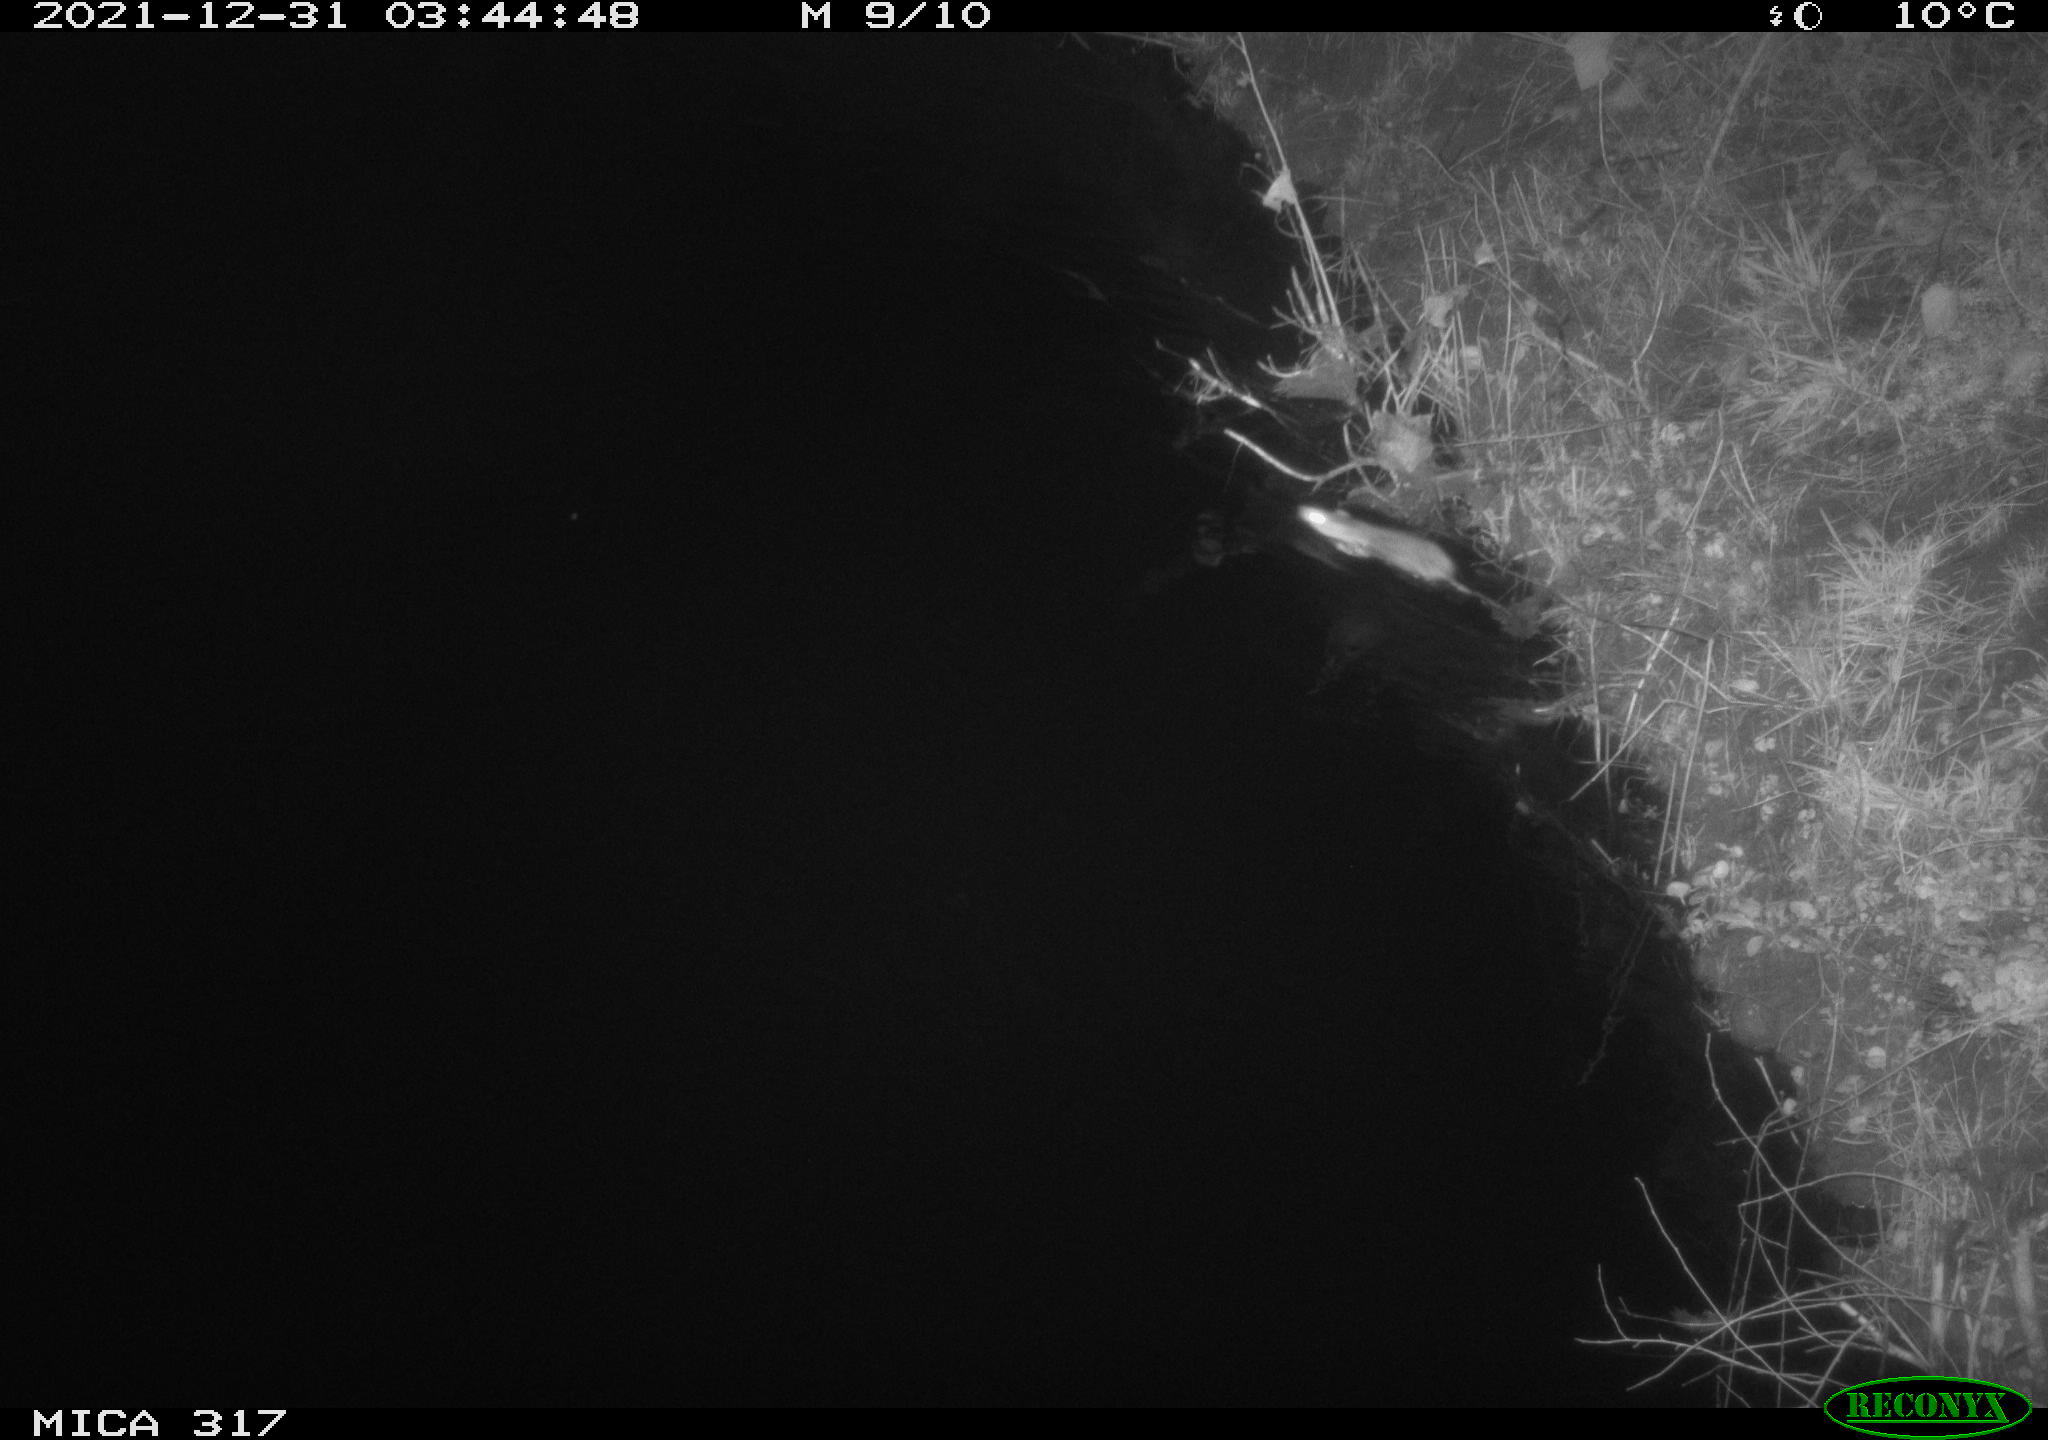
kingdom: Animalia
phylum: Chordata
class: Mammalia
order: Rodentia
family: Muridae
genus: Rattus
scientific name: Rattus norvegicus
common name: Brown rat
